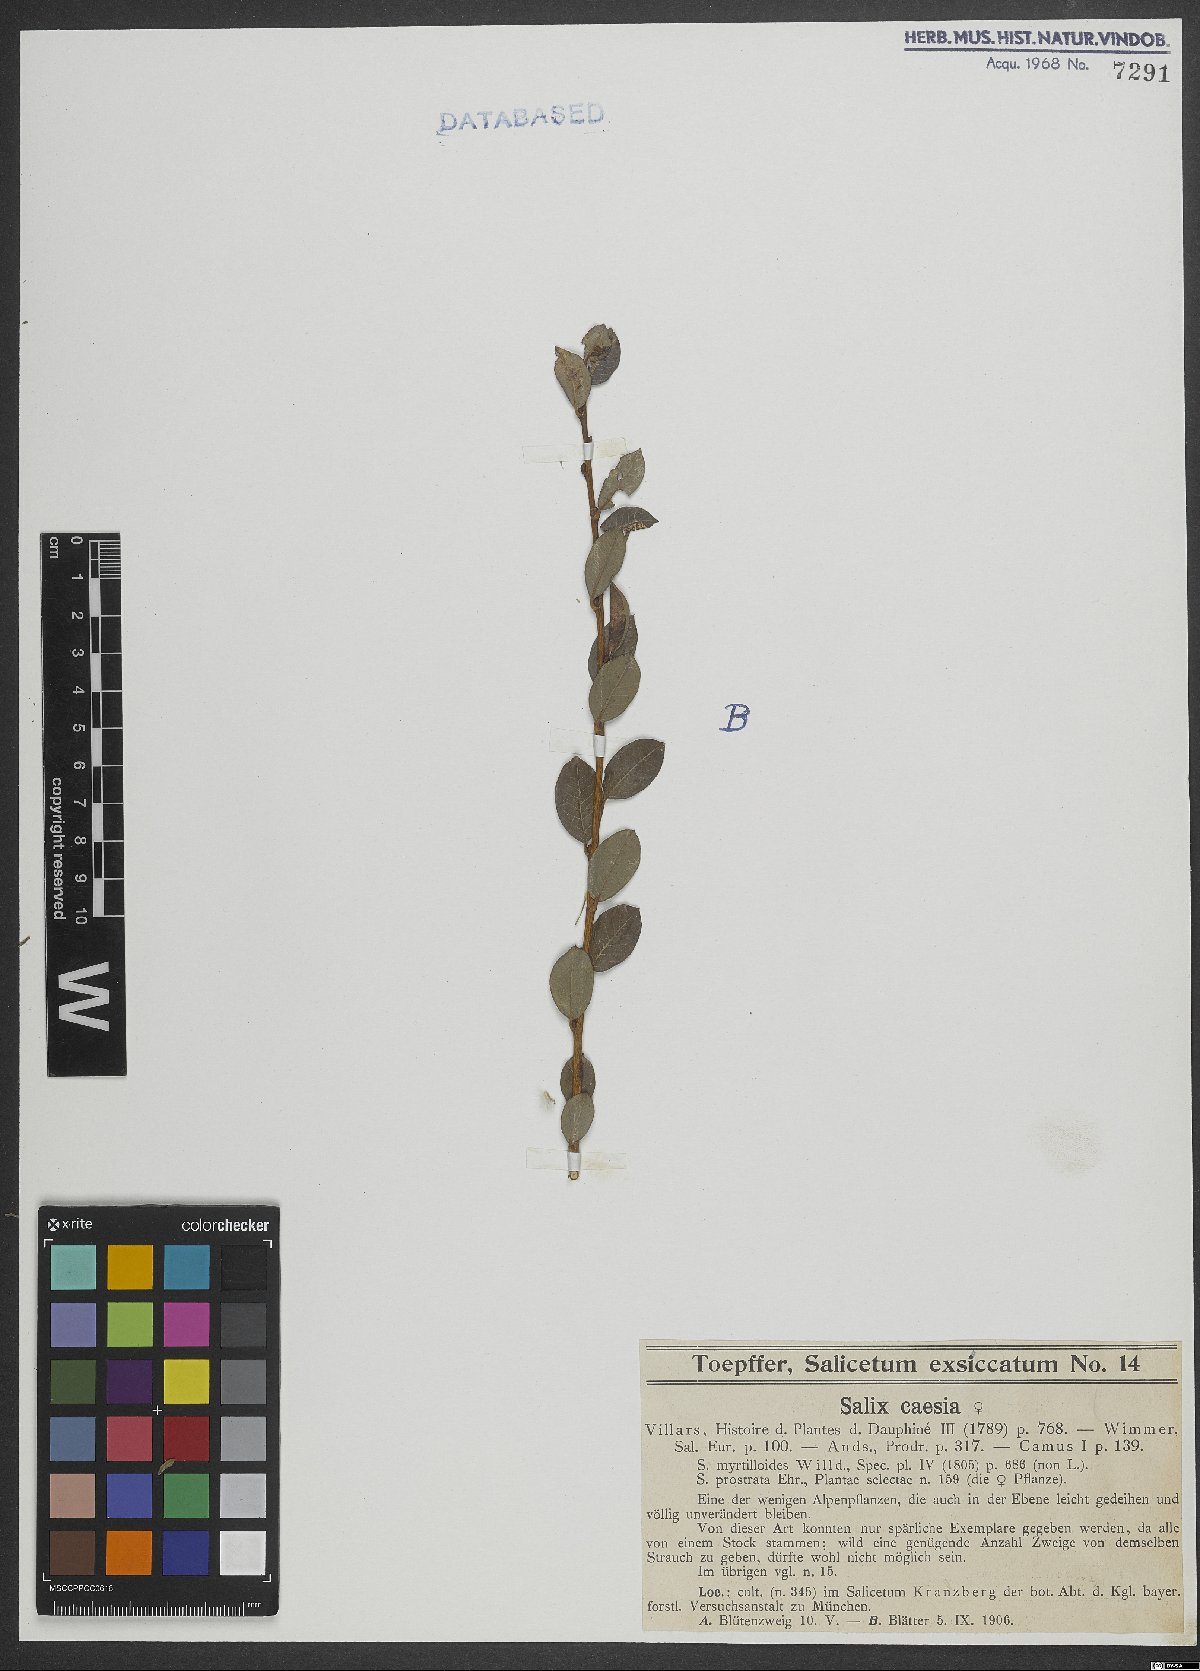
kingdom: Plantae
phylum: Tracheophyta
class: Magnoliopsida
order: Malpighiales
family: Salicaceae
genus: Salix
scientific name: Salix caesia
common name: Blue willow
